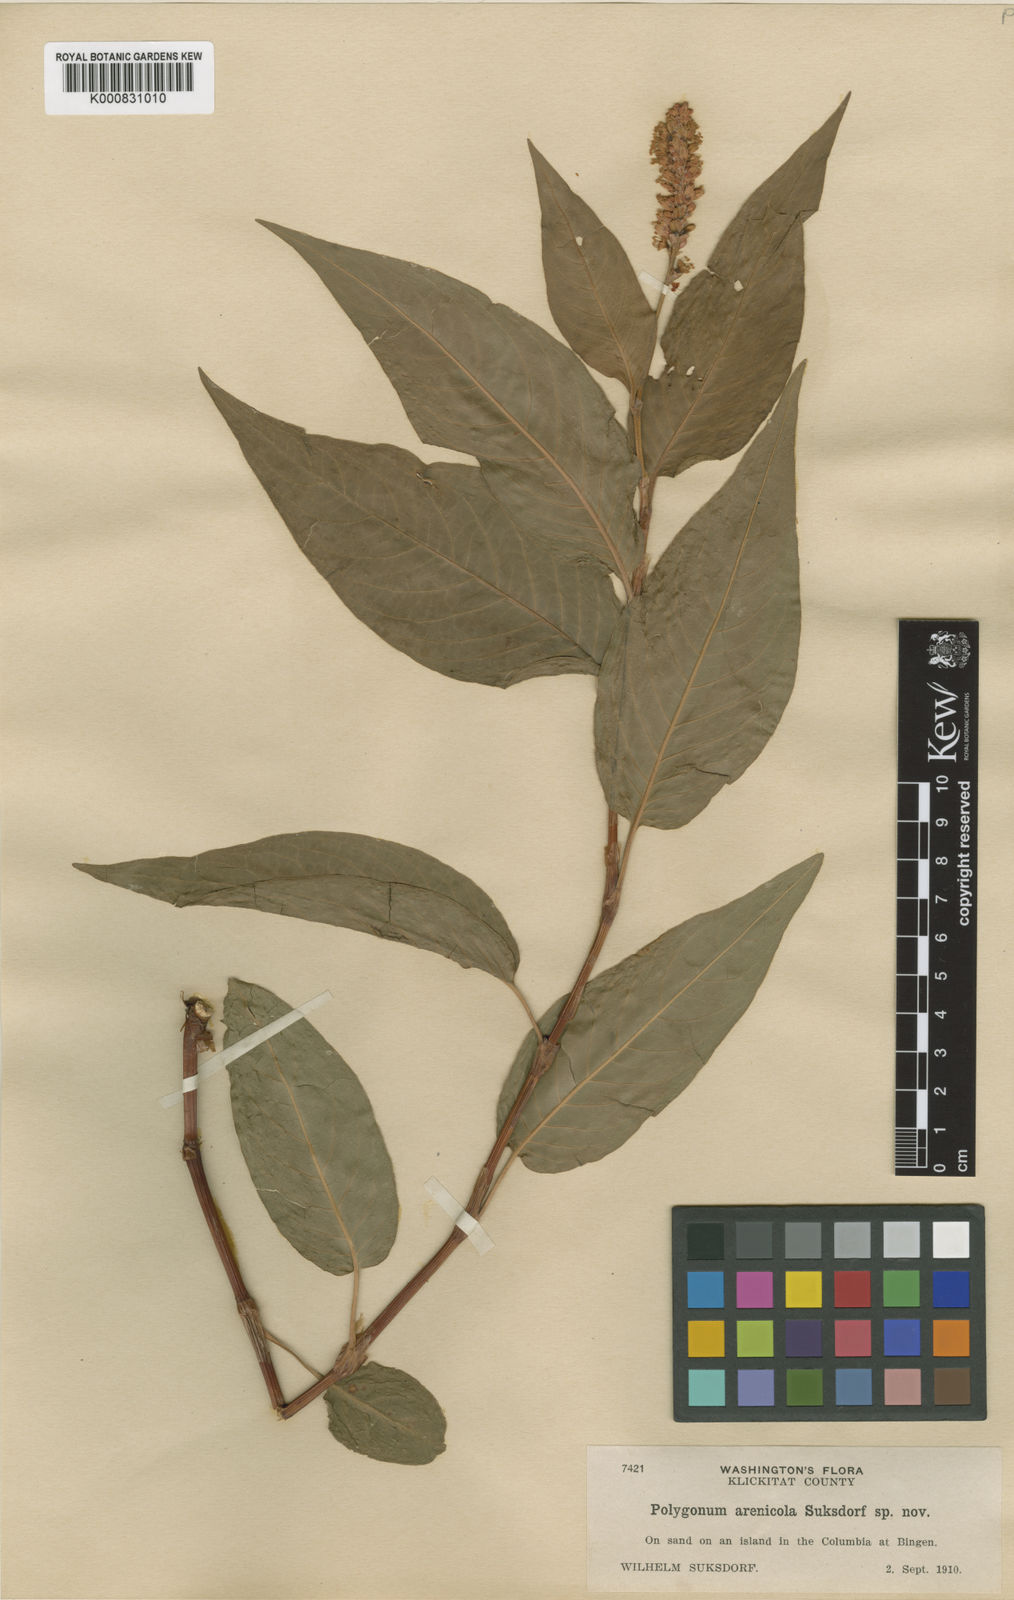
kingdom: Plantae
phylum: Tracheophyta
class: Magnoliopsida
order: Caryophyllales
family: Polygonaceae
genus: Persicaria
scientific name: Persicaria amphibia
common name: Amphibious bistort
